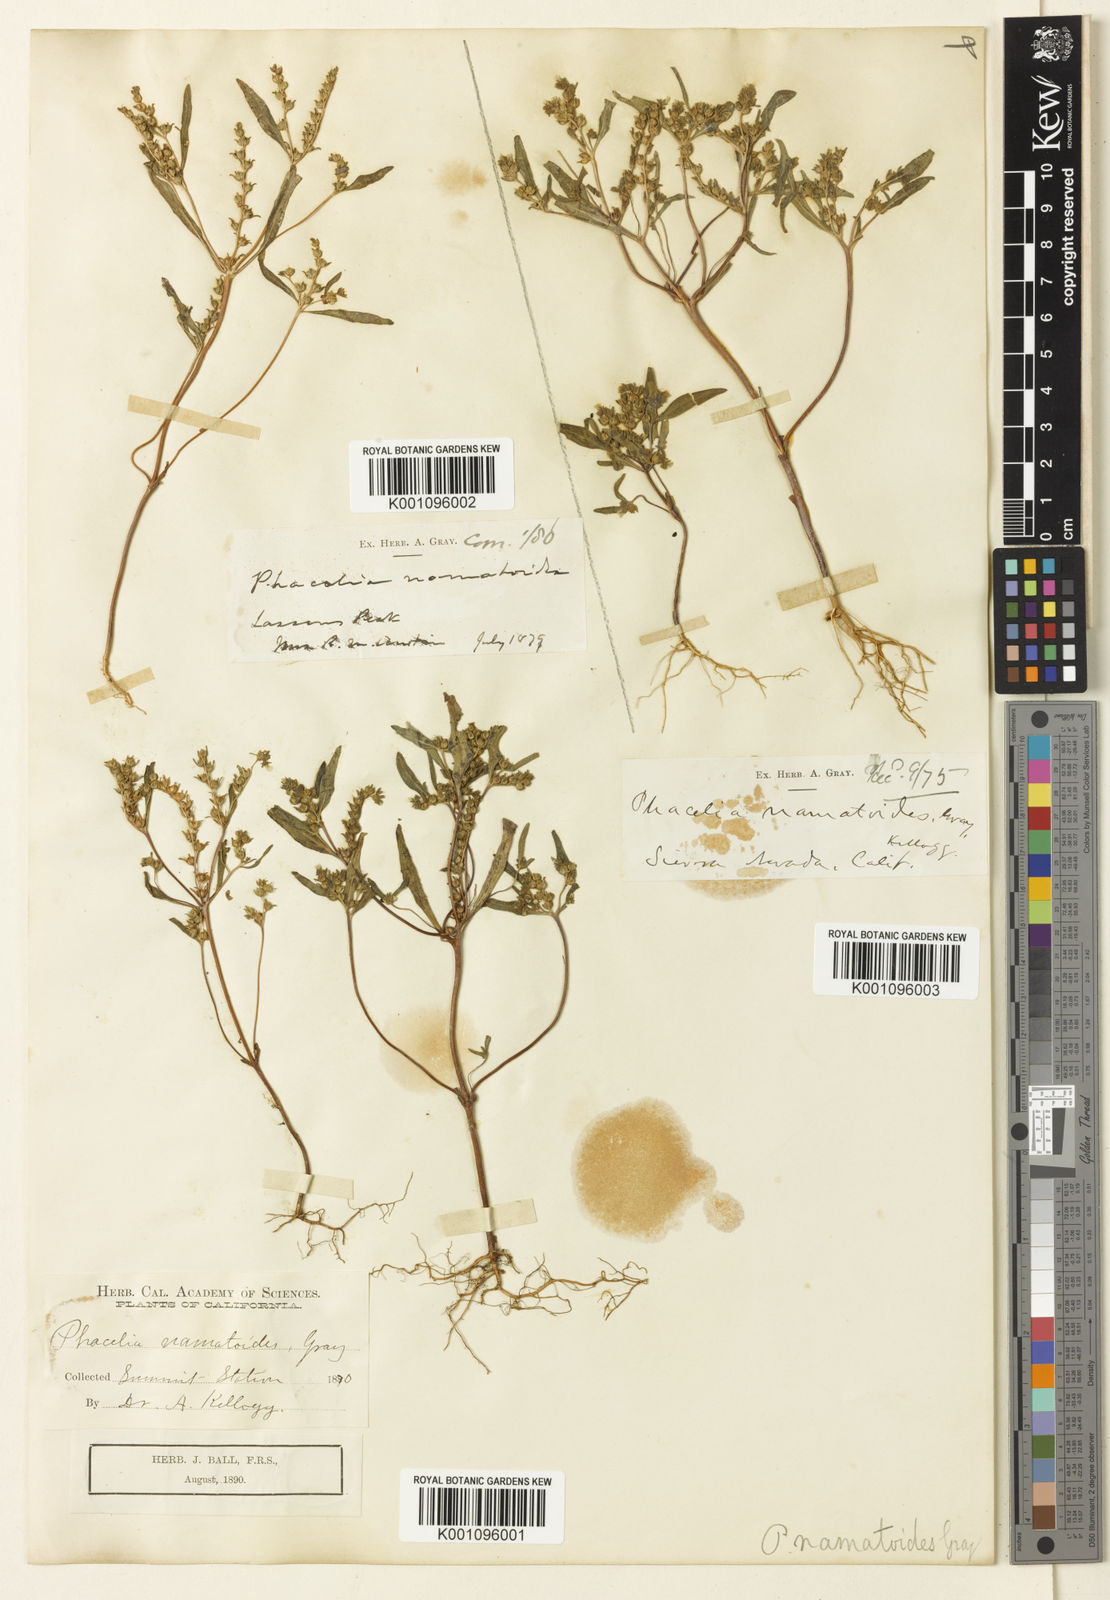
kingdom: Plantae
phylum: Tracheophyta
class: Magnoliopsida
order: Boraginales
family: Hydrophyllaceae
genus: Phacelia
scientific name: Phacelia racemosa
